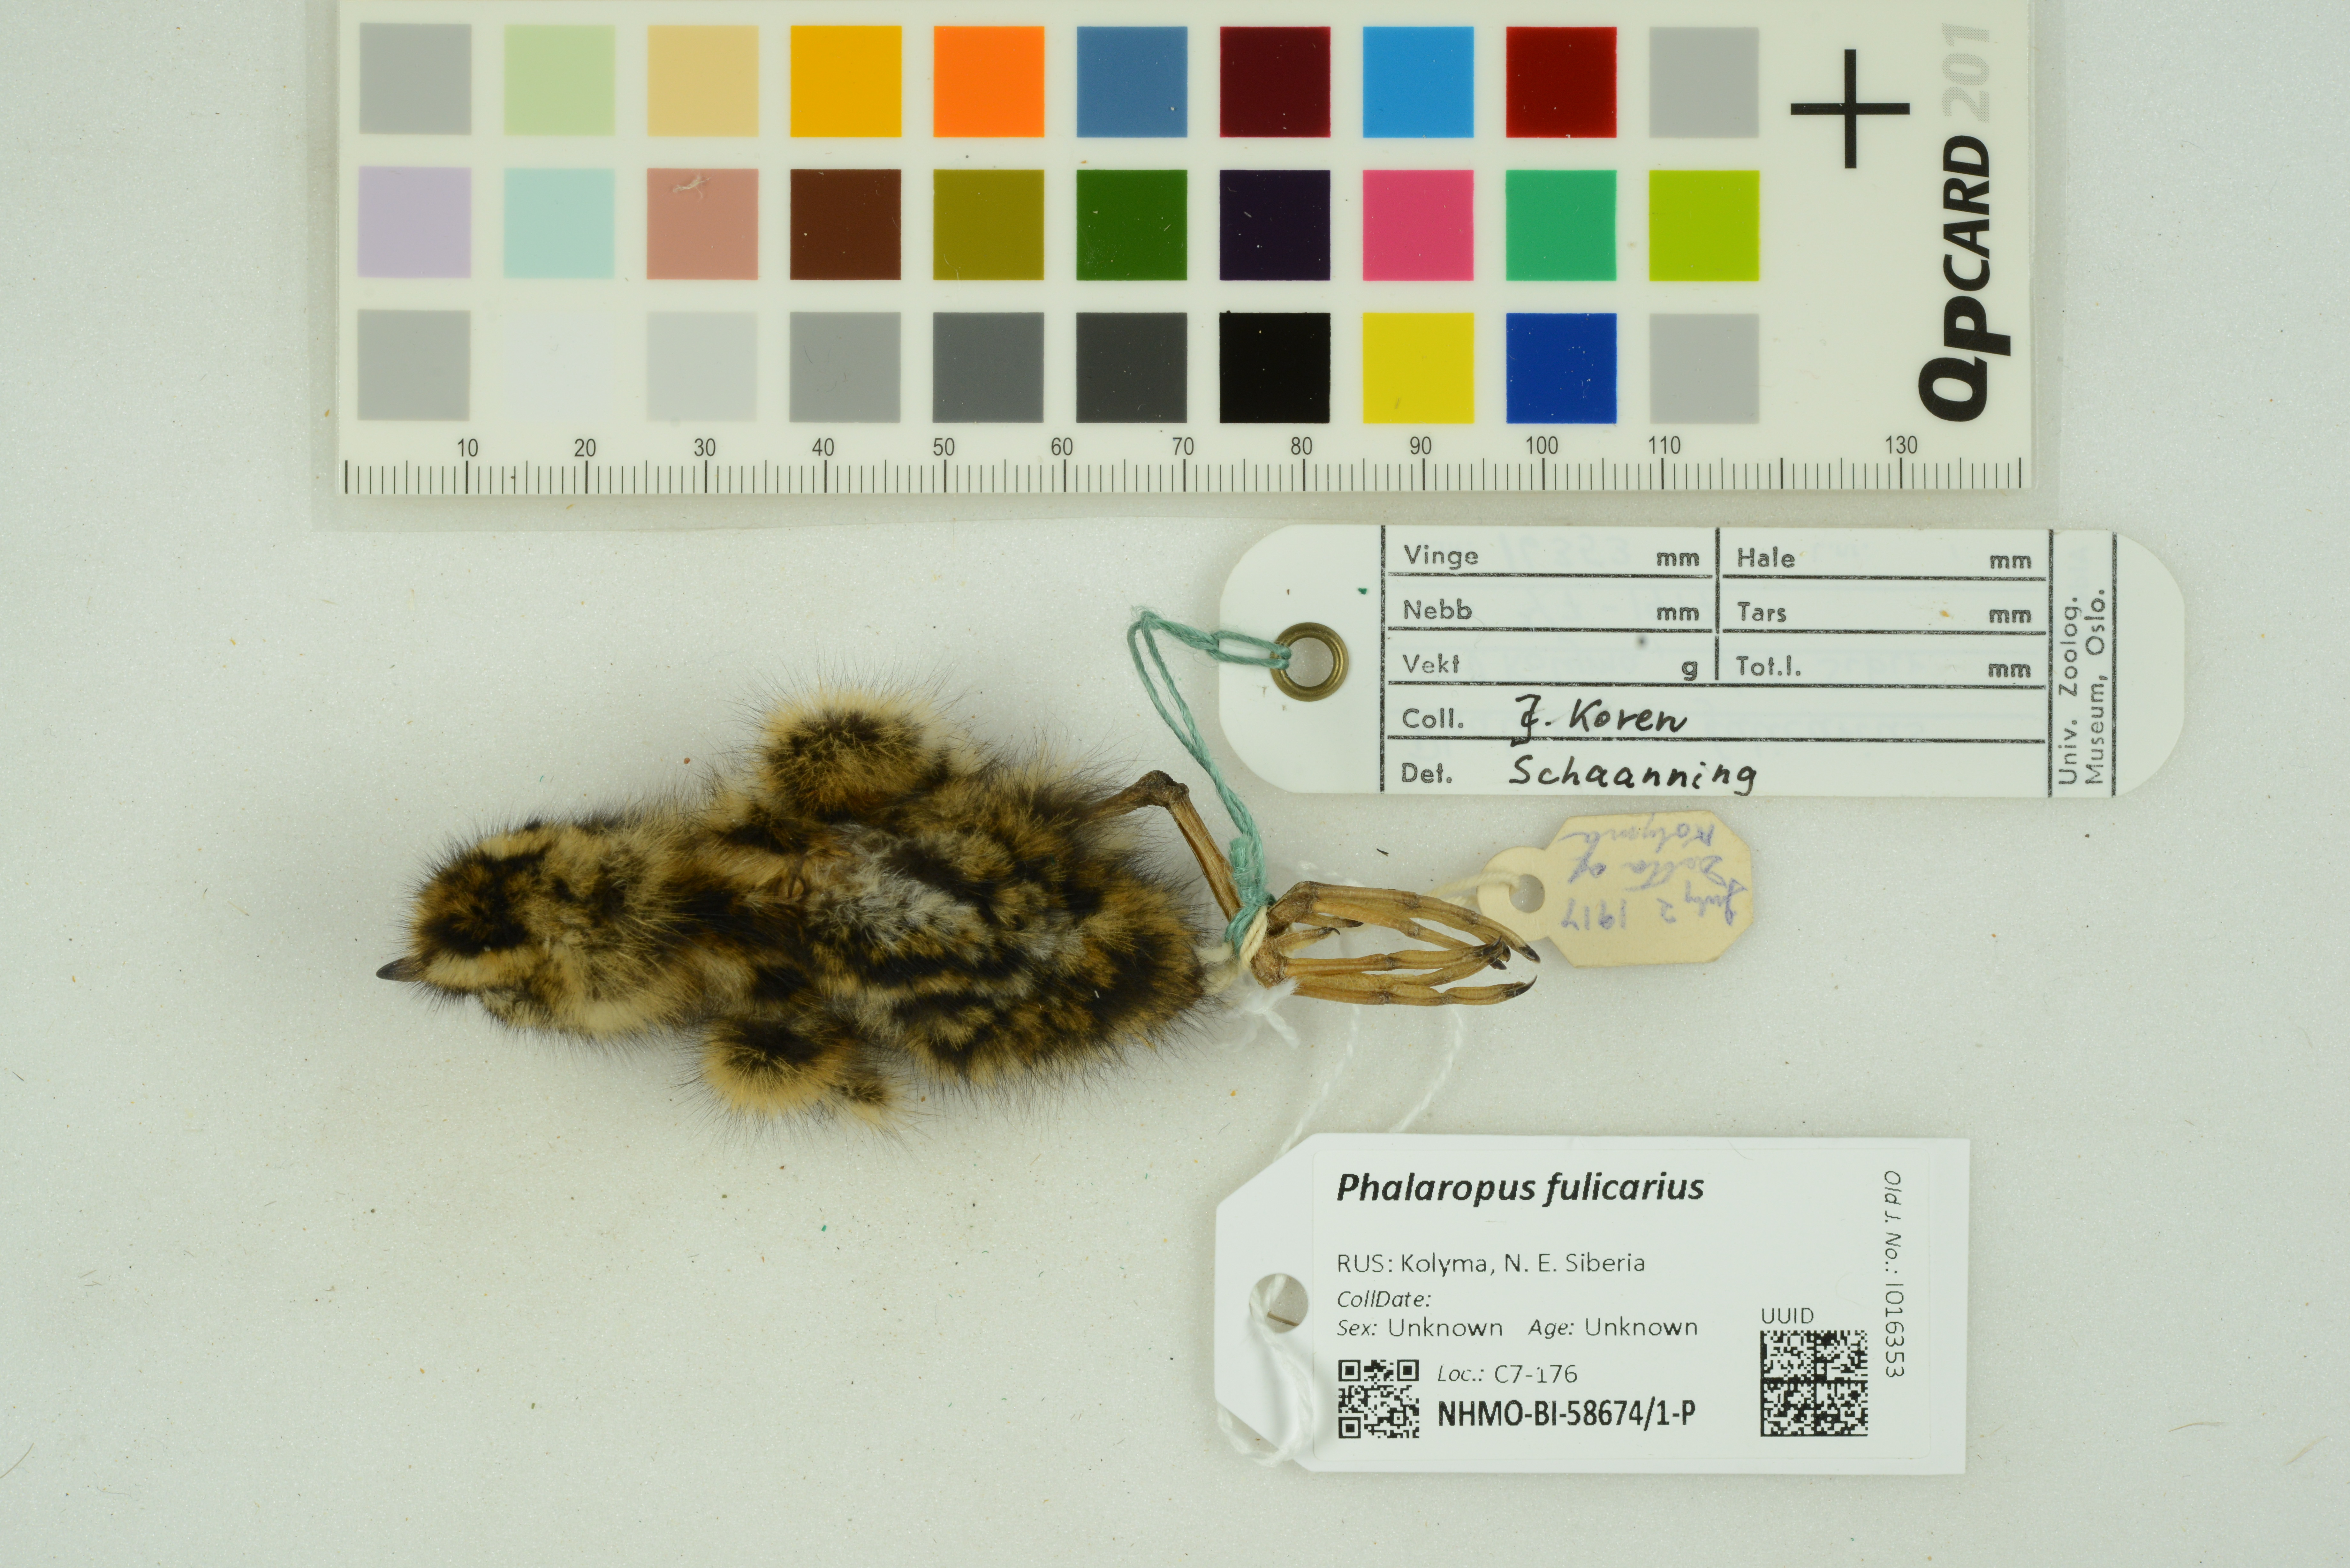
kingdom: Animalia
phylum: Chordata
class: Aves
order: Charadriiformes
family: Scolopacidae
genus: Phalaropus
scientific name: Phalaropus fulicarius
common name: Red phalarope
